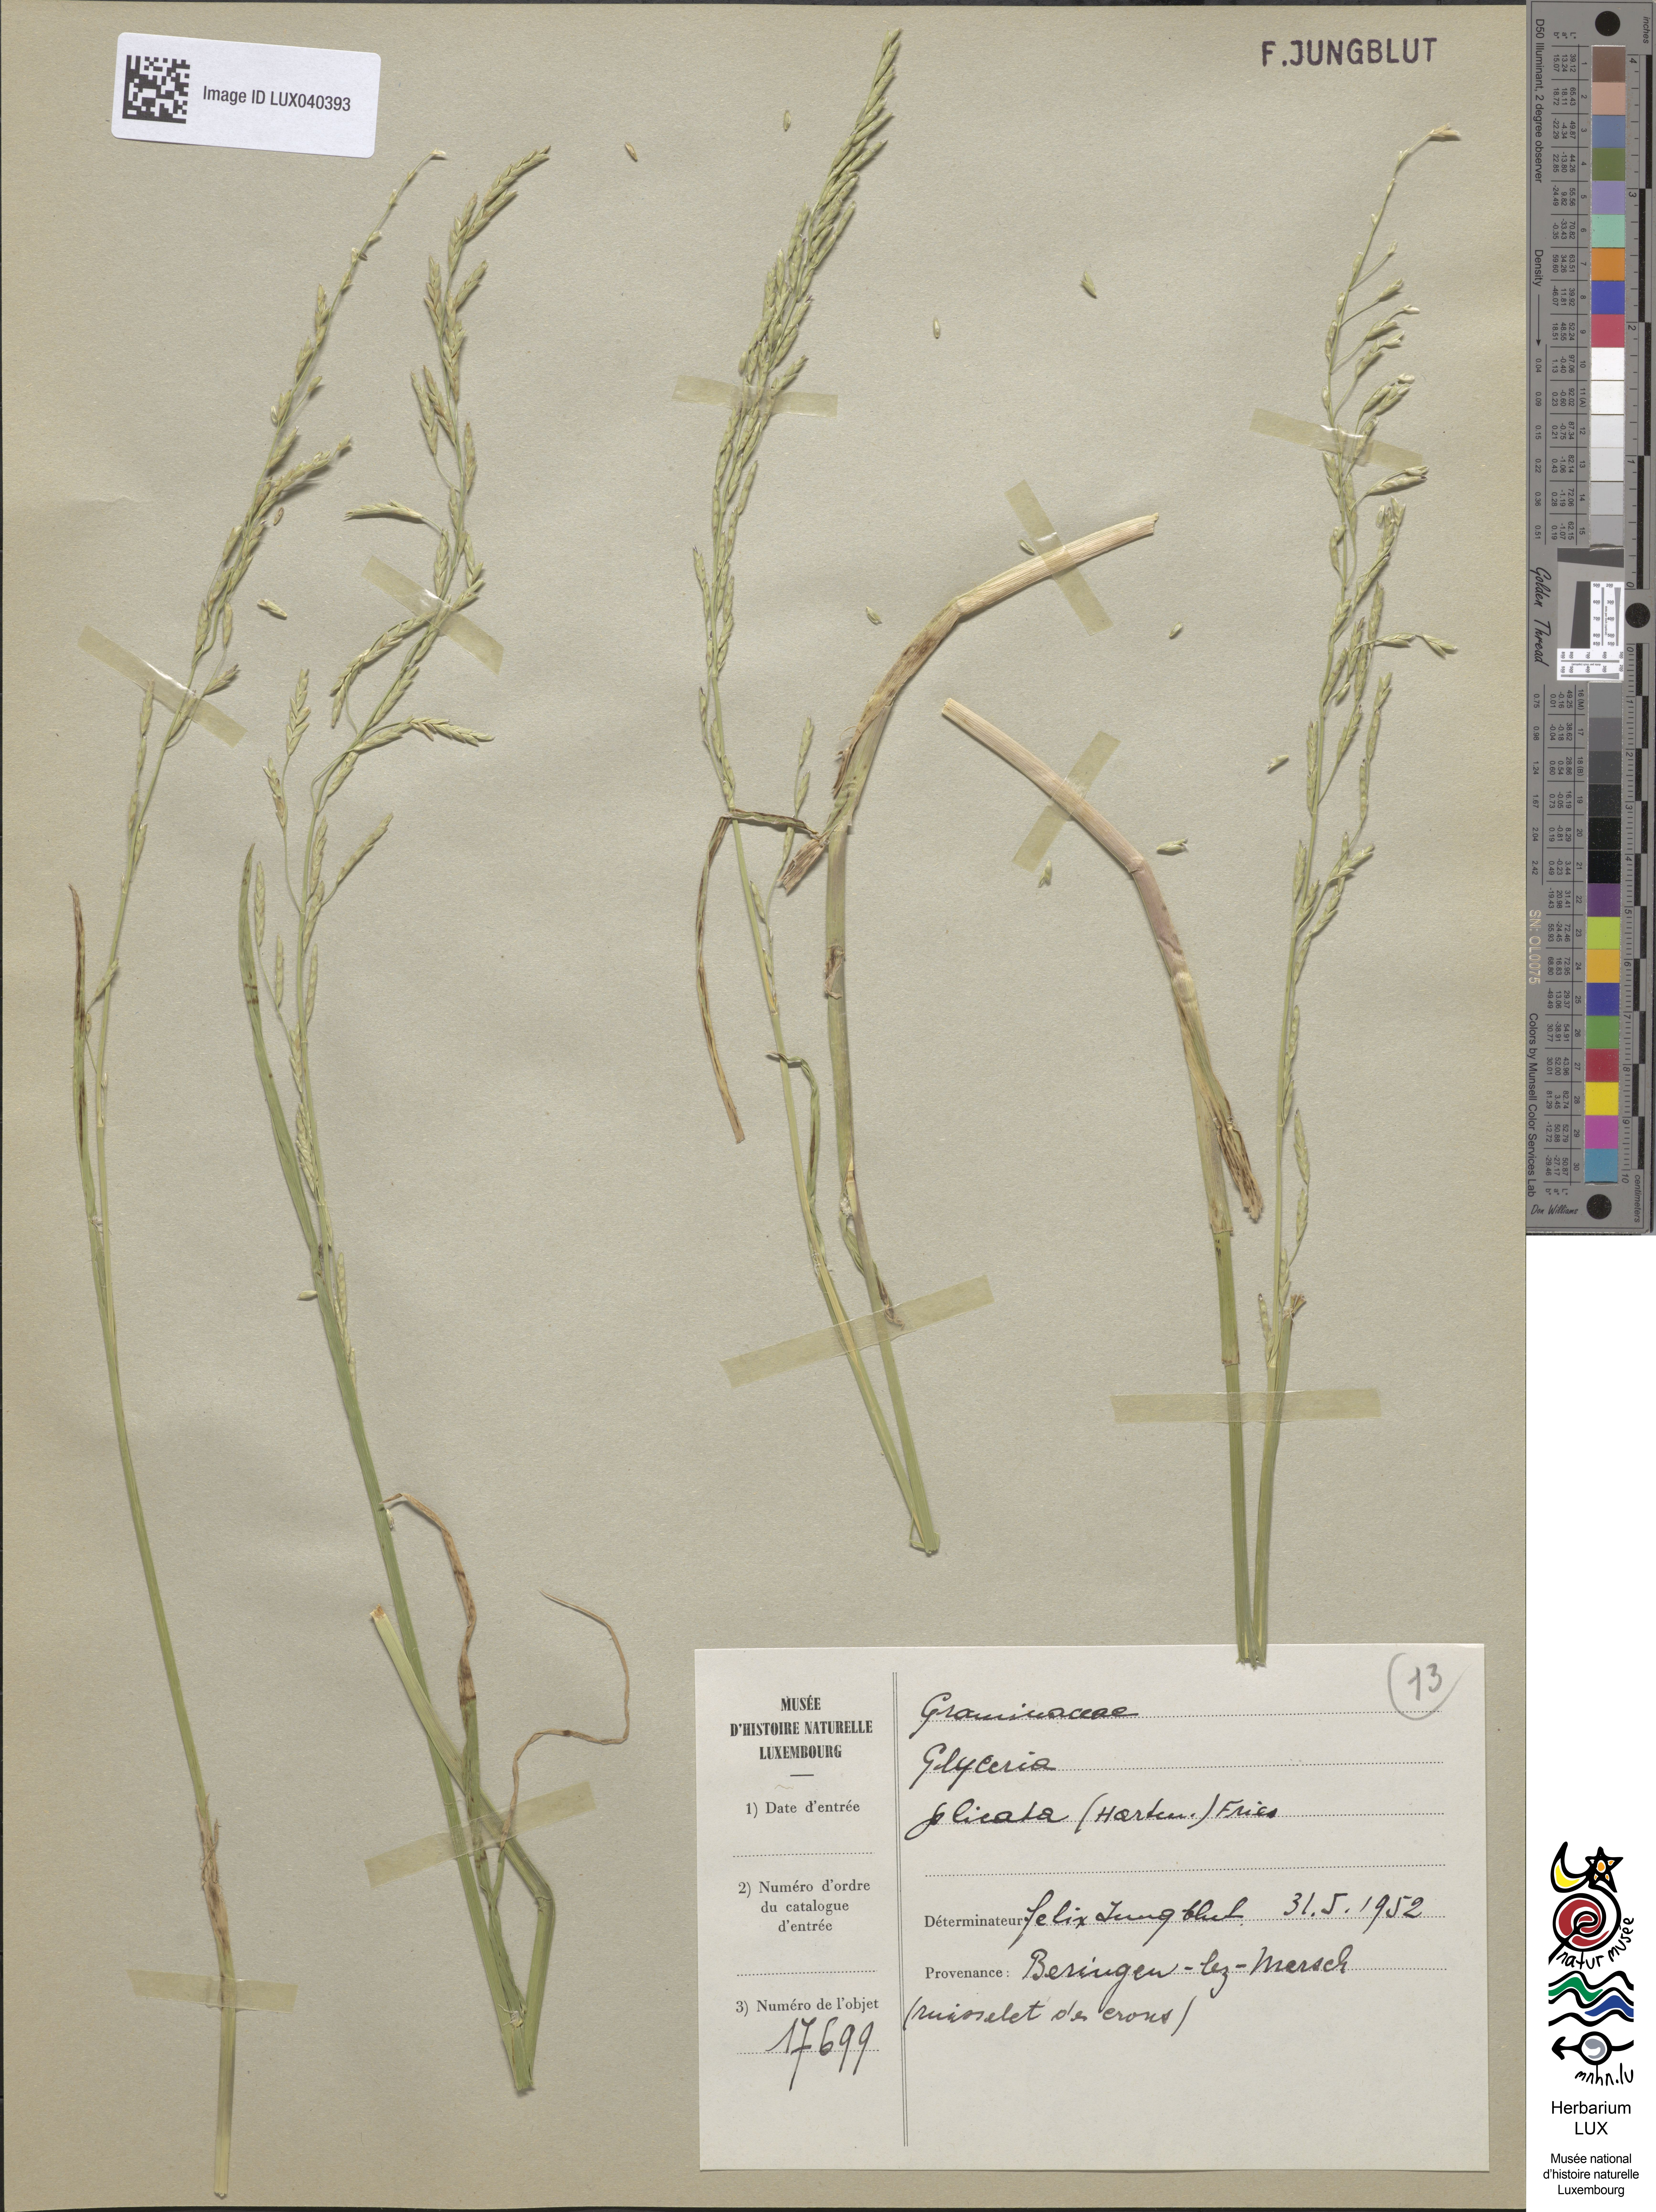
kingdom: Plantae
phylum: Tracheophyta
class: Liliopsida
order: Poales
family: Poaceae
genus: Glyceria
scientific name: Glyceria notata
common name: Plicate sweet-grass
